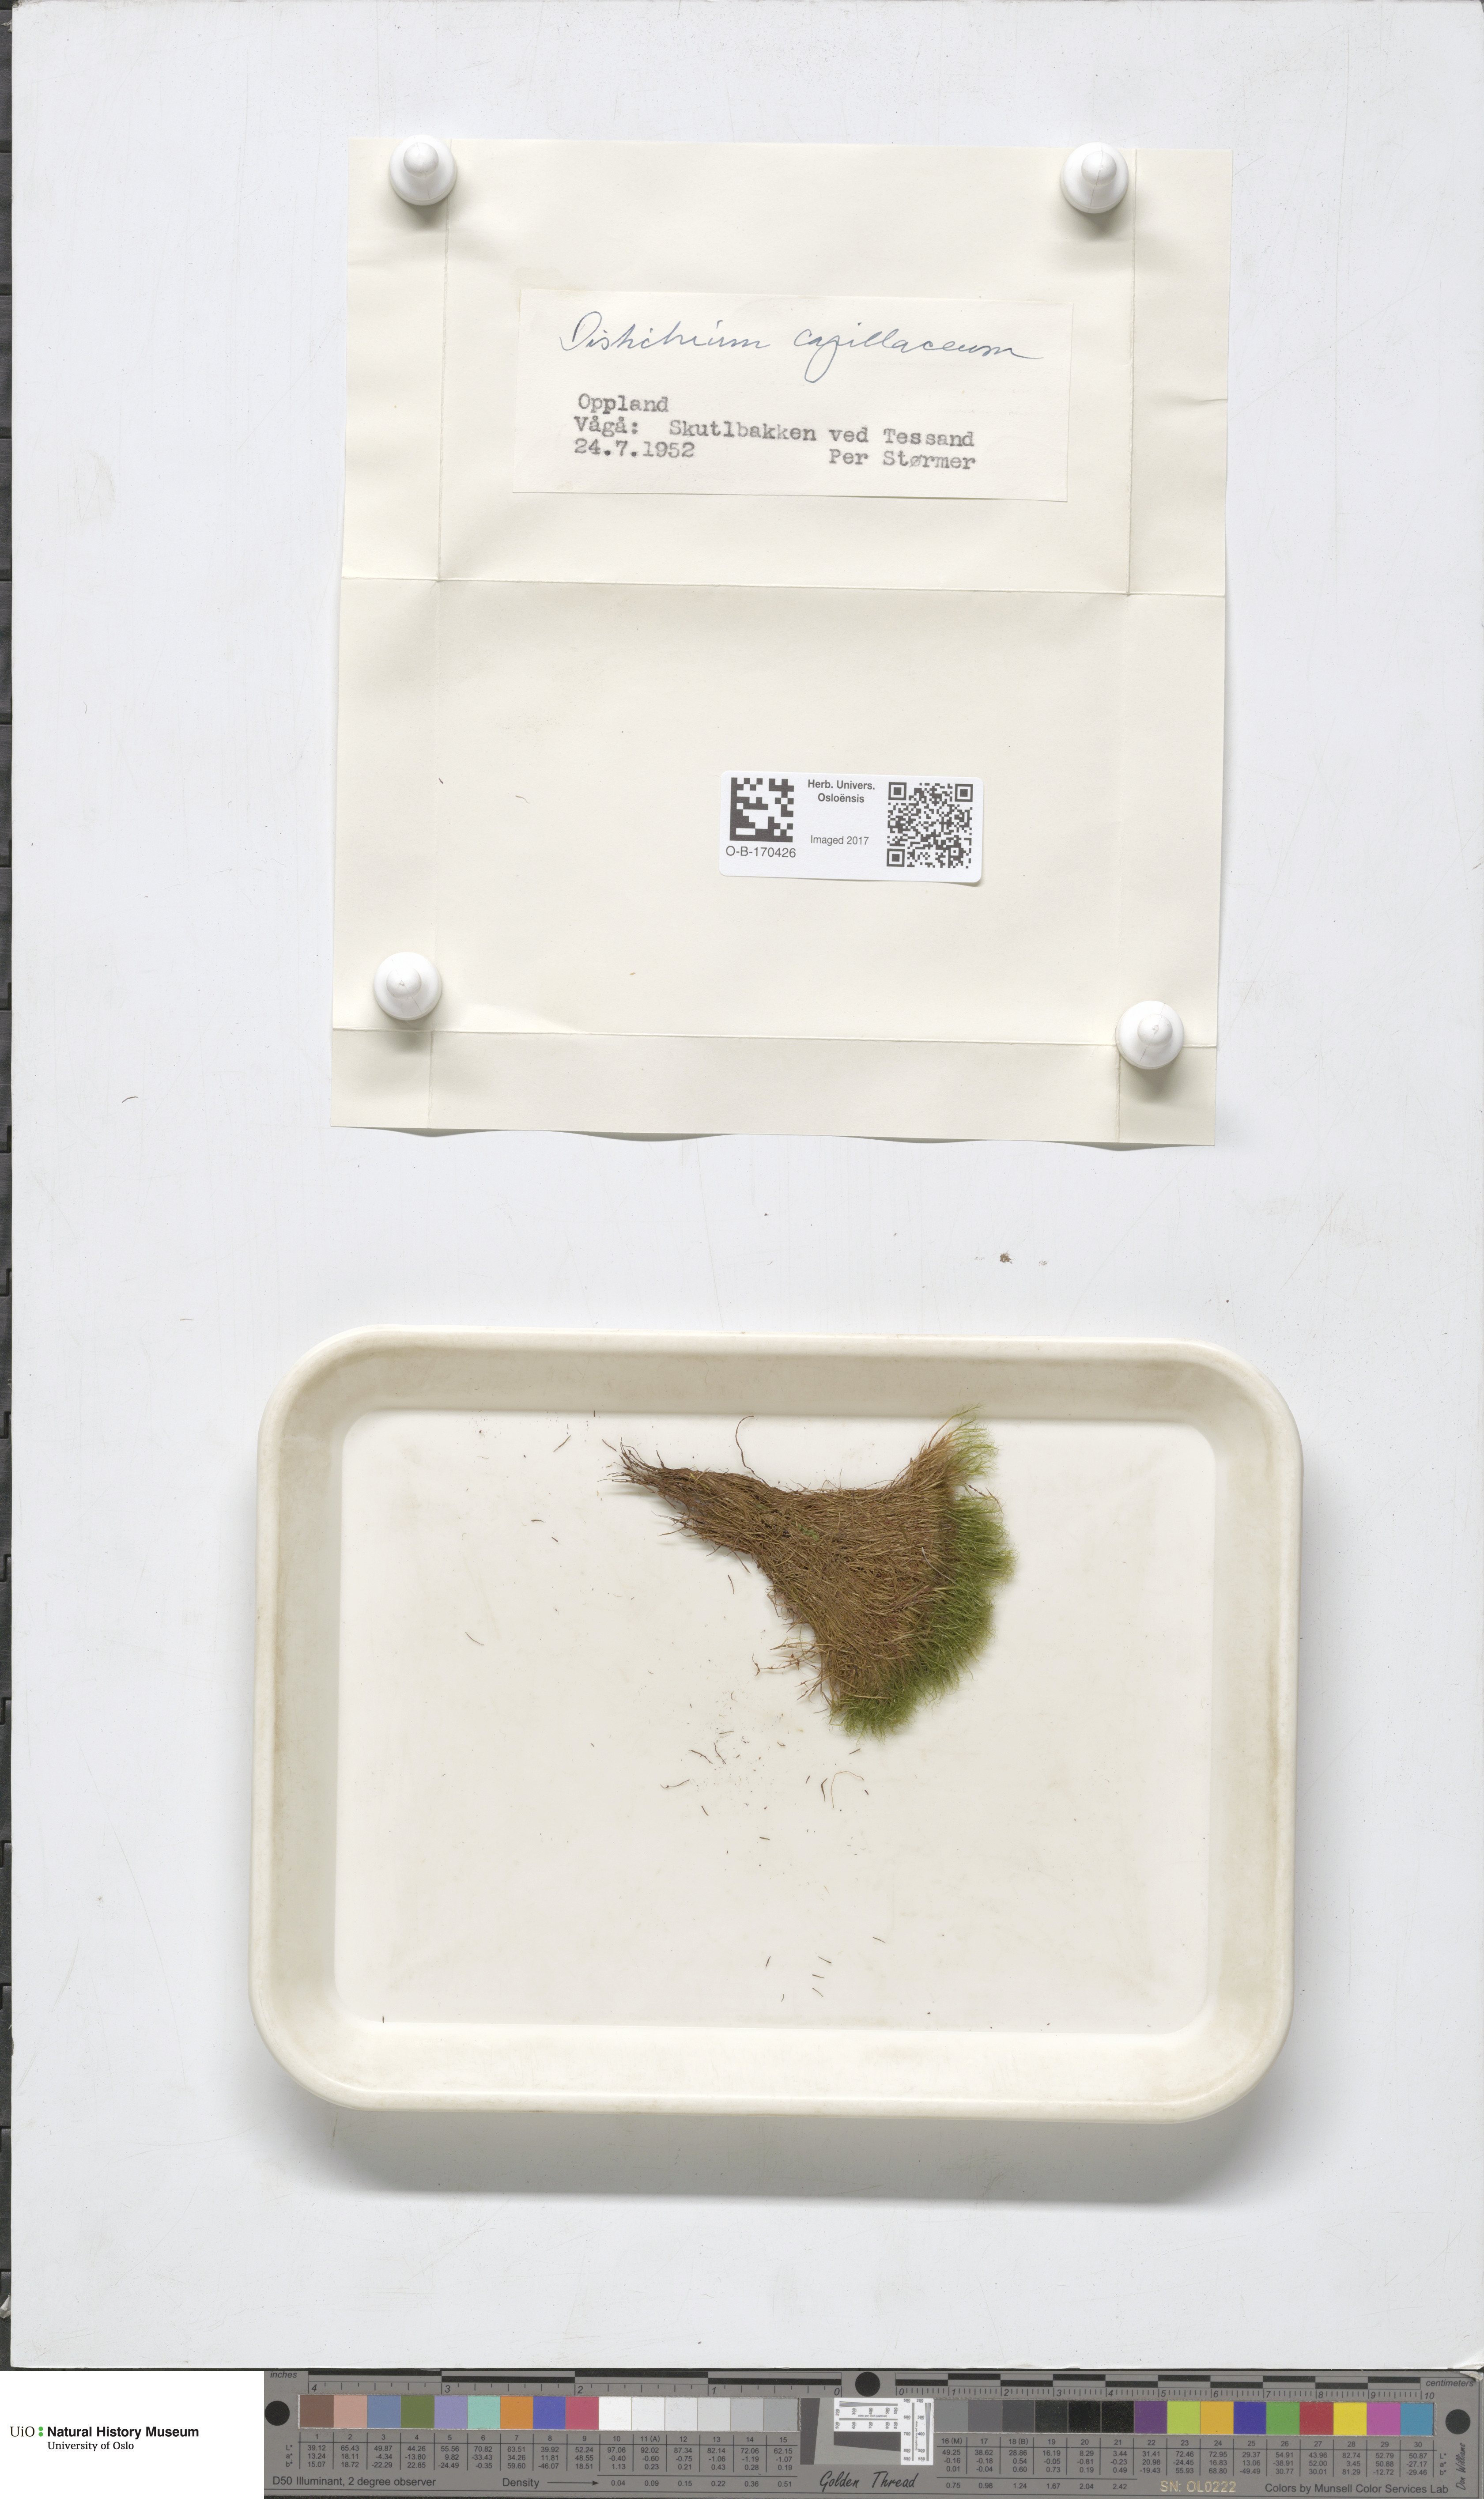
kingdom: Plantae
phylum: Bryophyta
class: Bryopsida
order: Scouleriales
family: Distichiaceae
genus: Distichium
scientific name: Distichium capillaceum
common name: Erect-fruited iris moss
